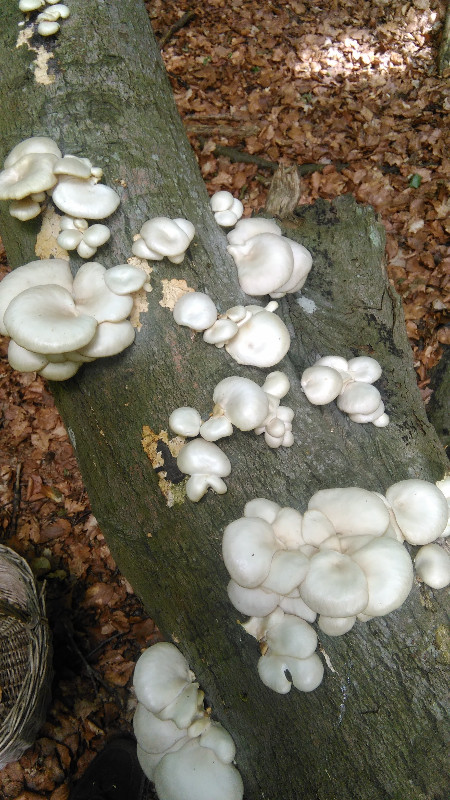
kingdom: Fungi
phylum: Basidiomycota
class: Agaricomycetes
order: Agaricales
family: Pleurotaceae
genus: Pleurotus
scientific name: Pleurotus pulmonarius
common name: sommer-østershat
